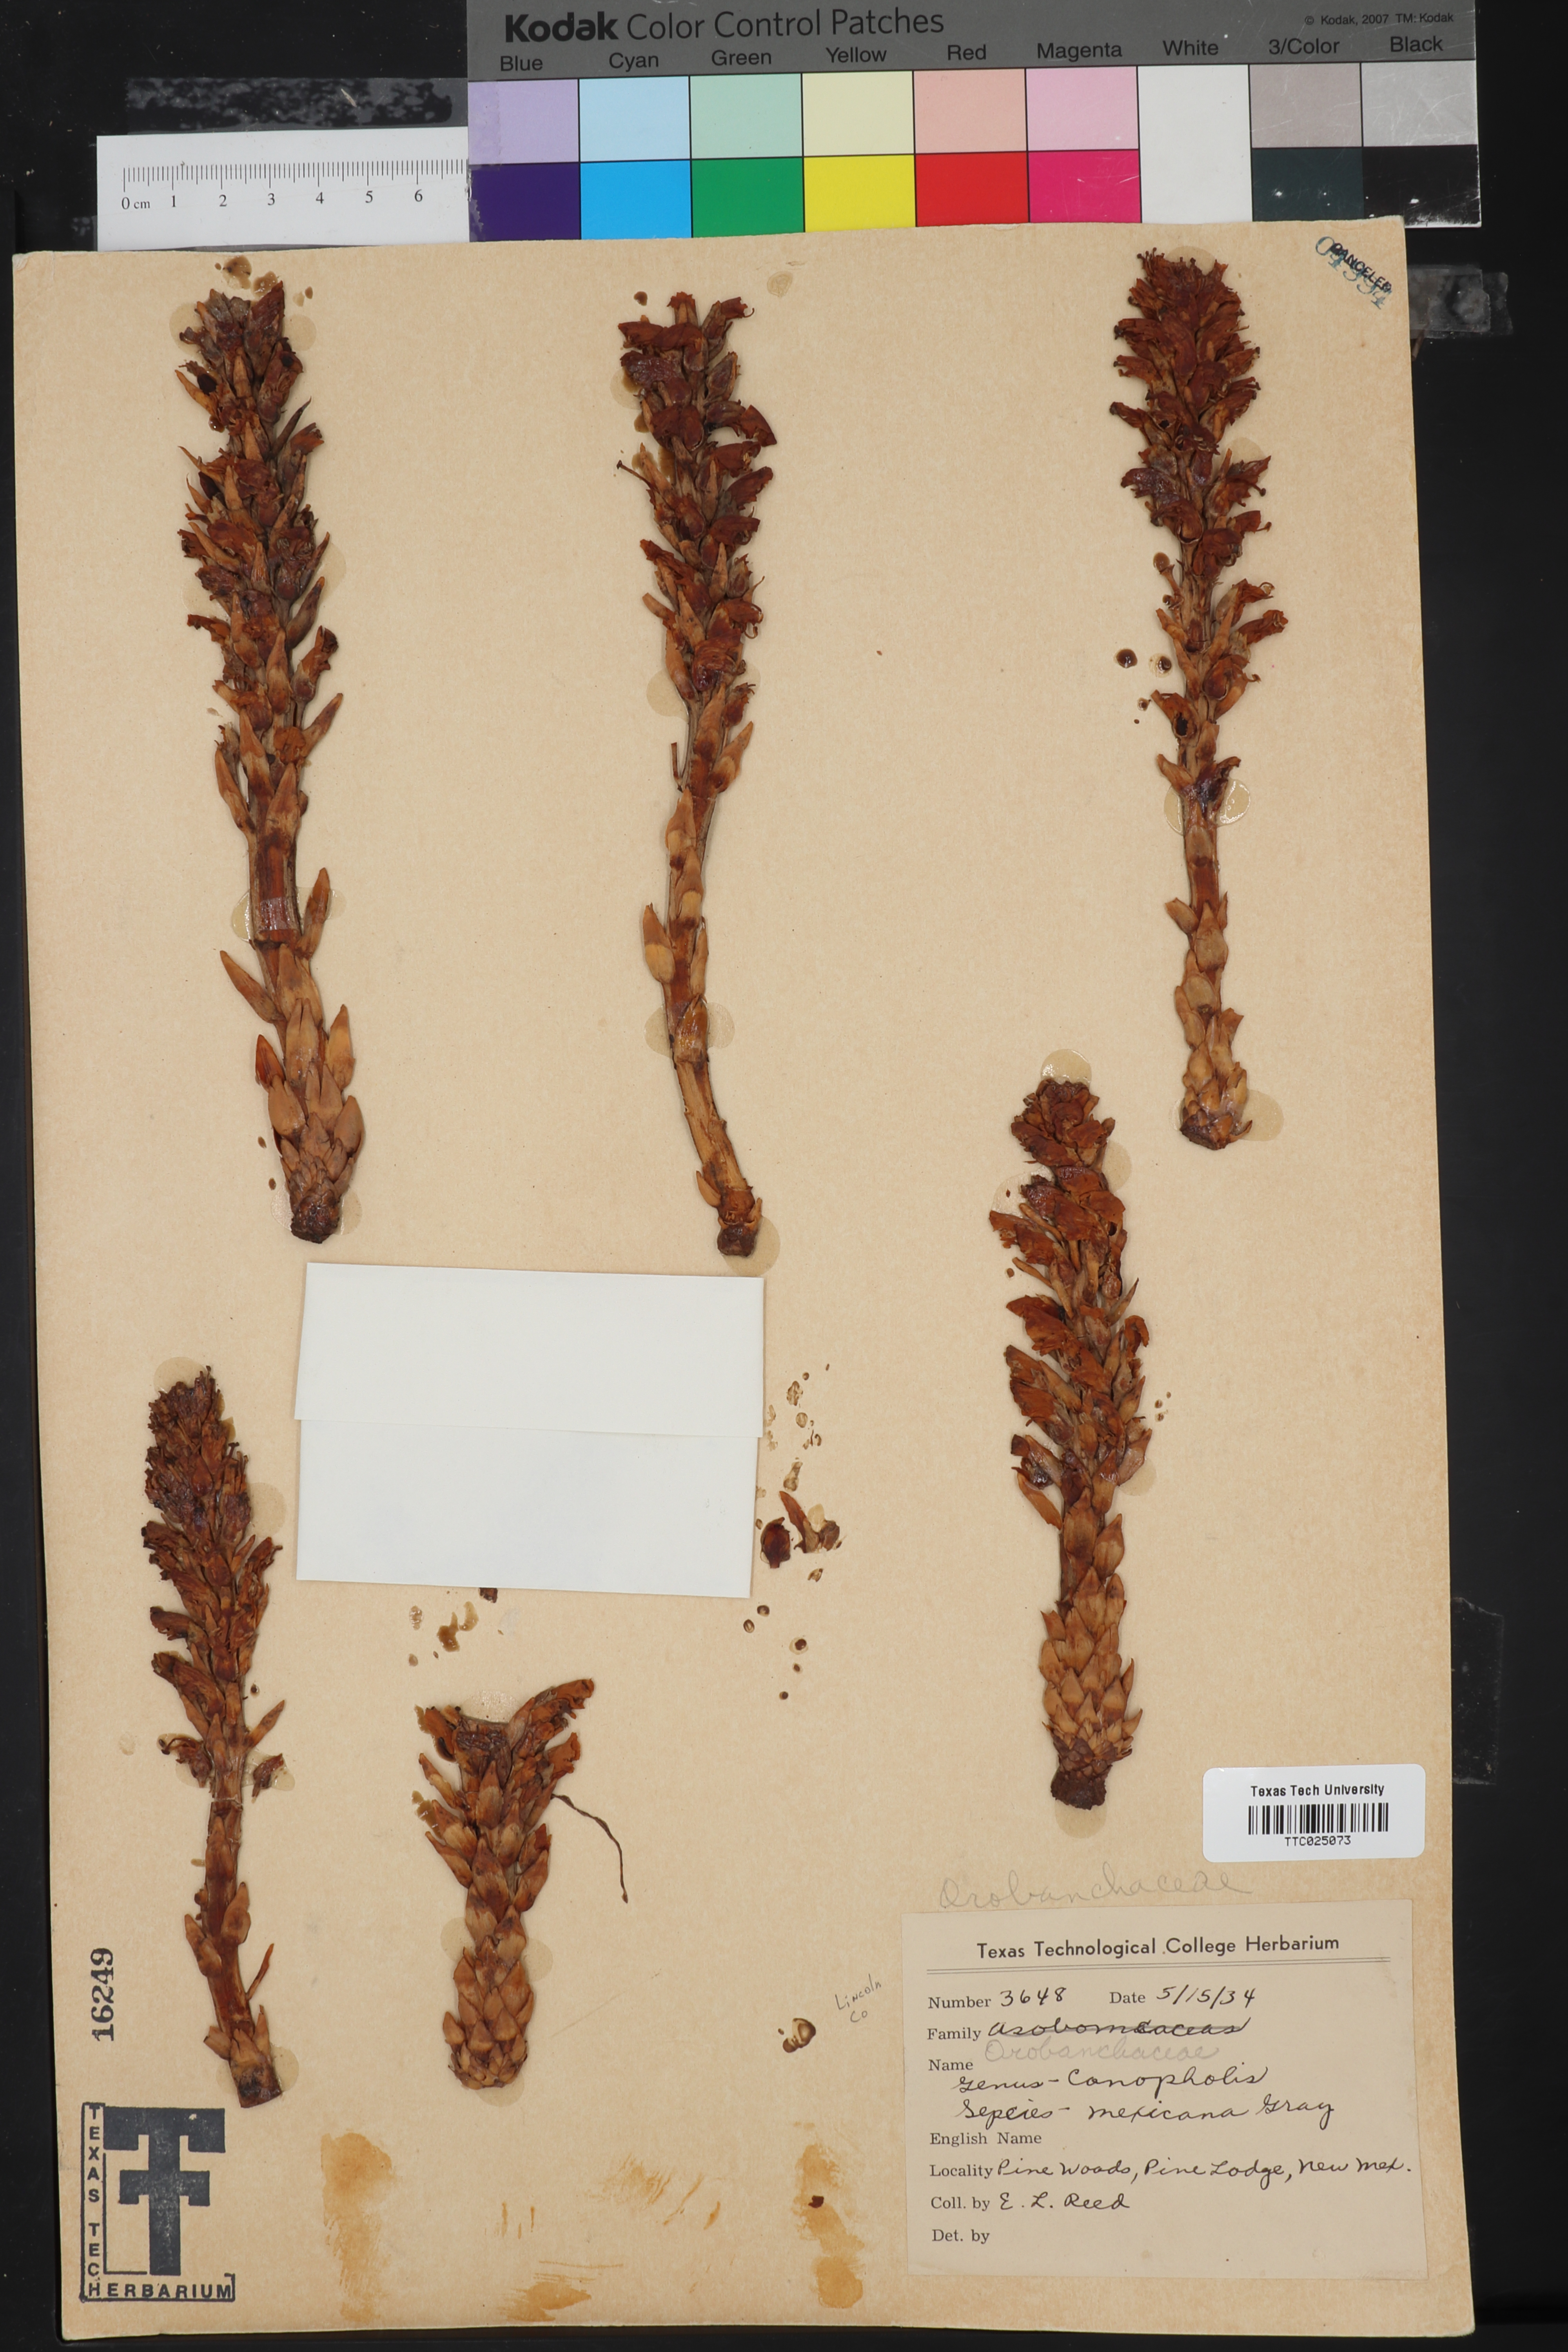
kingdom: Plantae
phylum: Tracheophyta
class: Magnoliopsida
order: Lamiales
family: Orobanchaceae
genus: Conopholis
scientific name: Conopholis alpina
